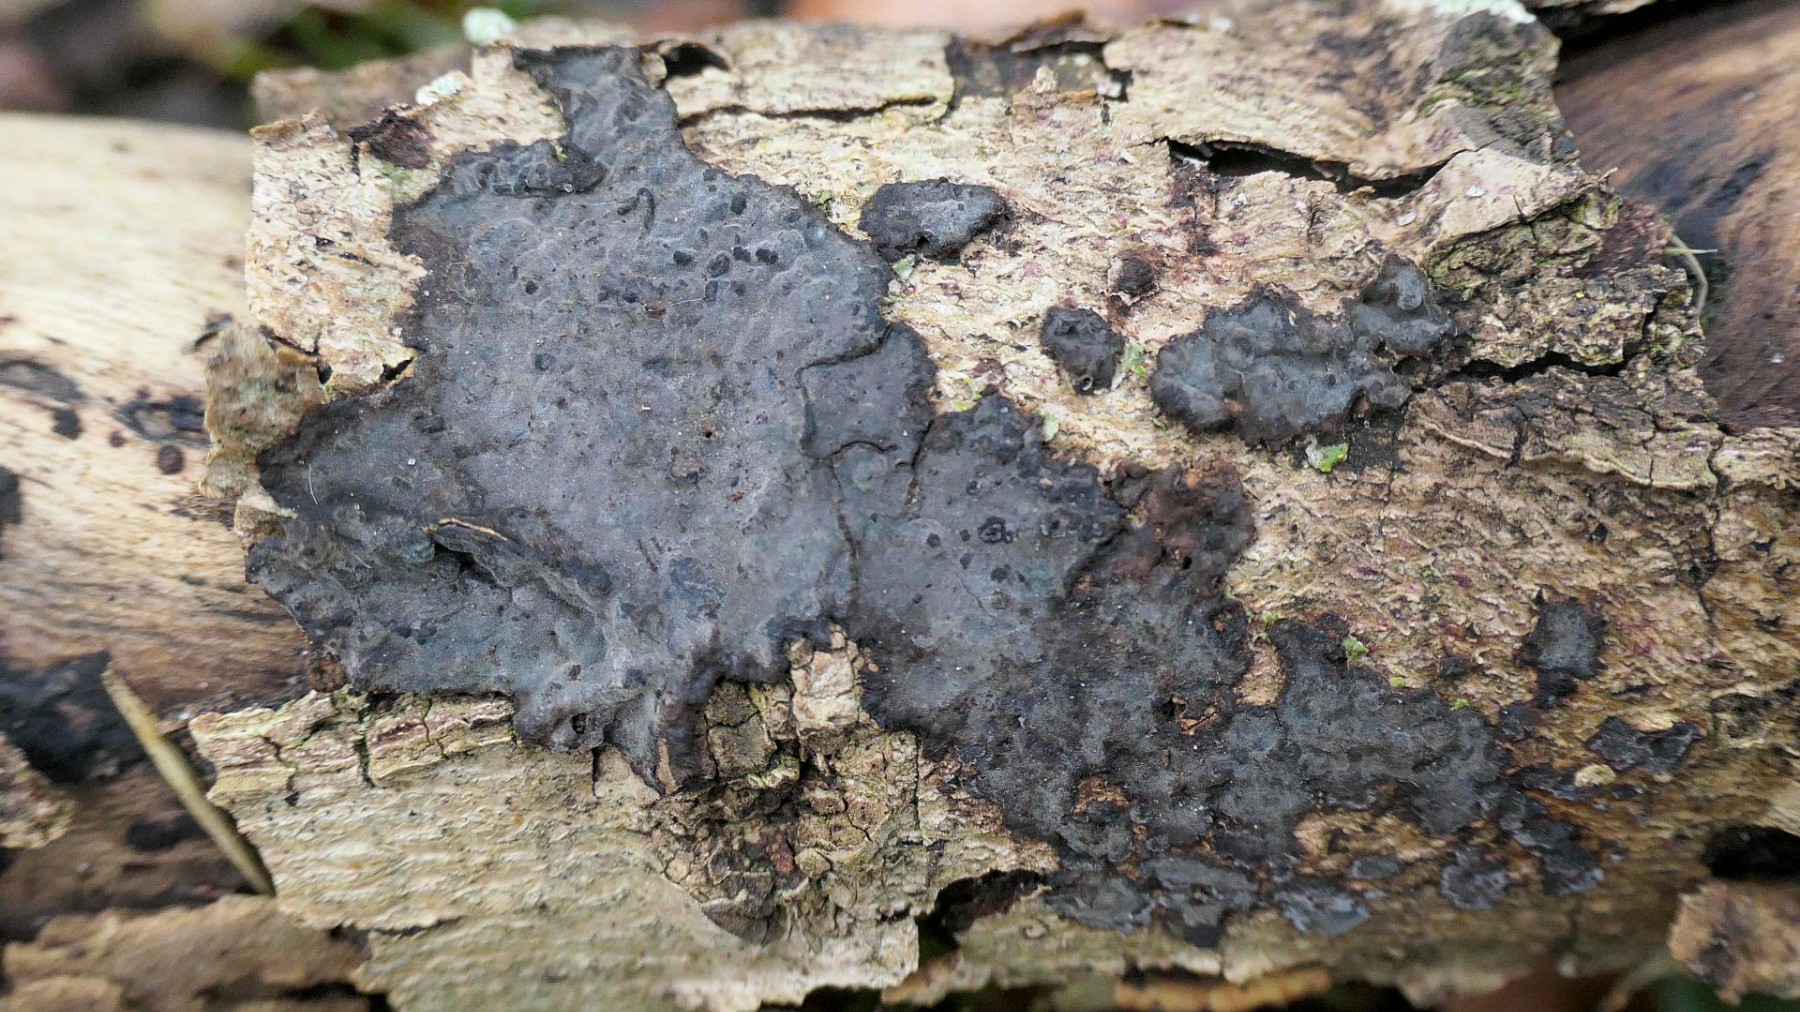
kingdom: Fungi
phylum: Basidiomycota
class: Agaricomycetes
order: Russulales
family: Peniophoraceae
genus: Peniophora
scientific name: Peniophora limitata
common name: mørkrandet voksskind
